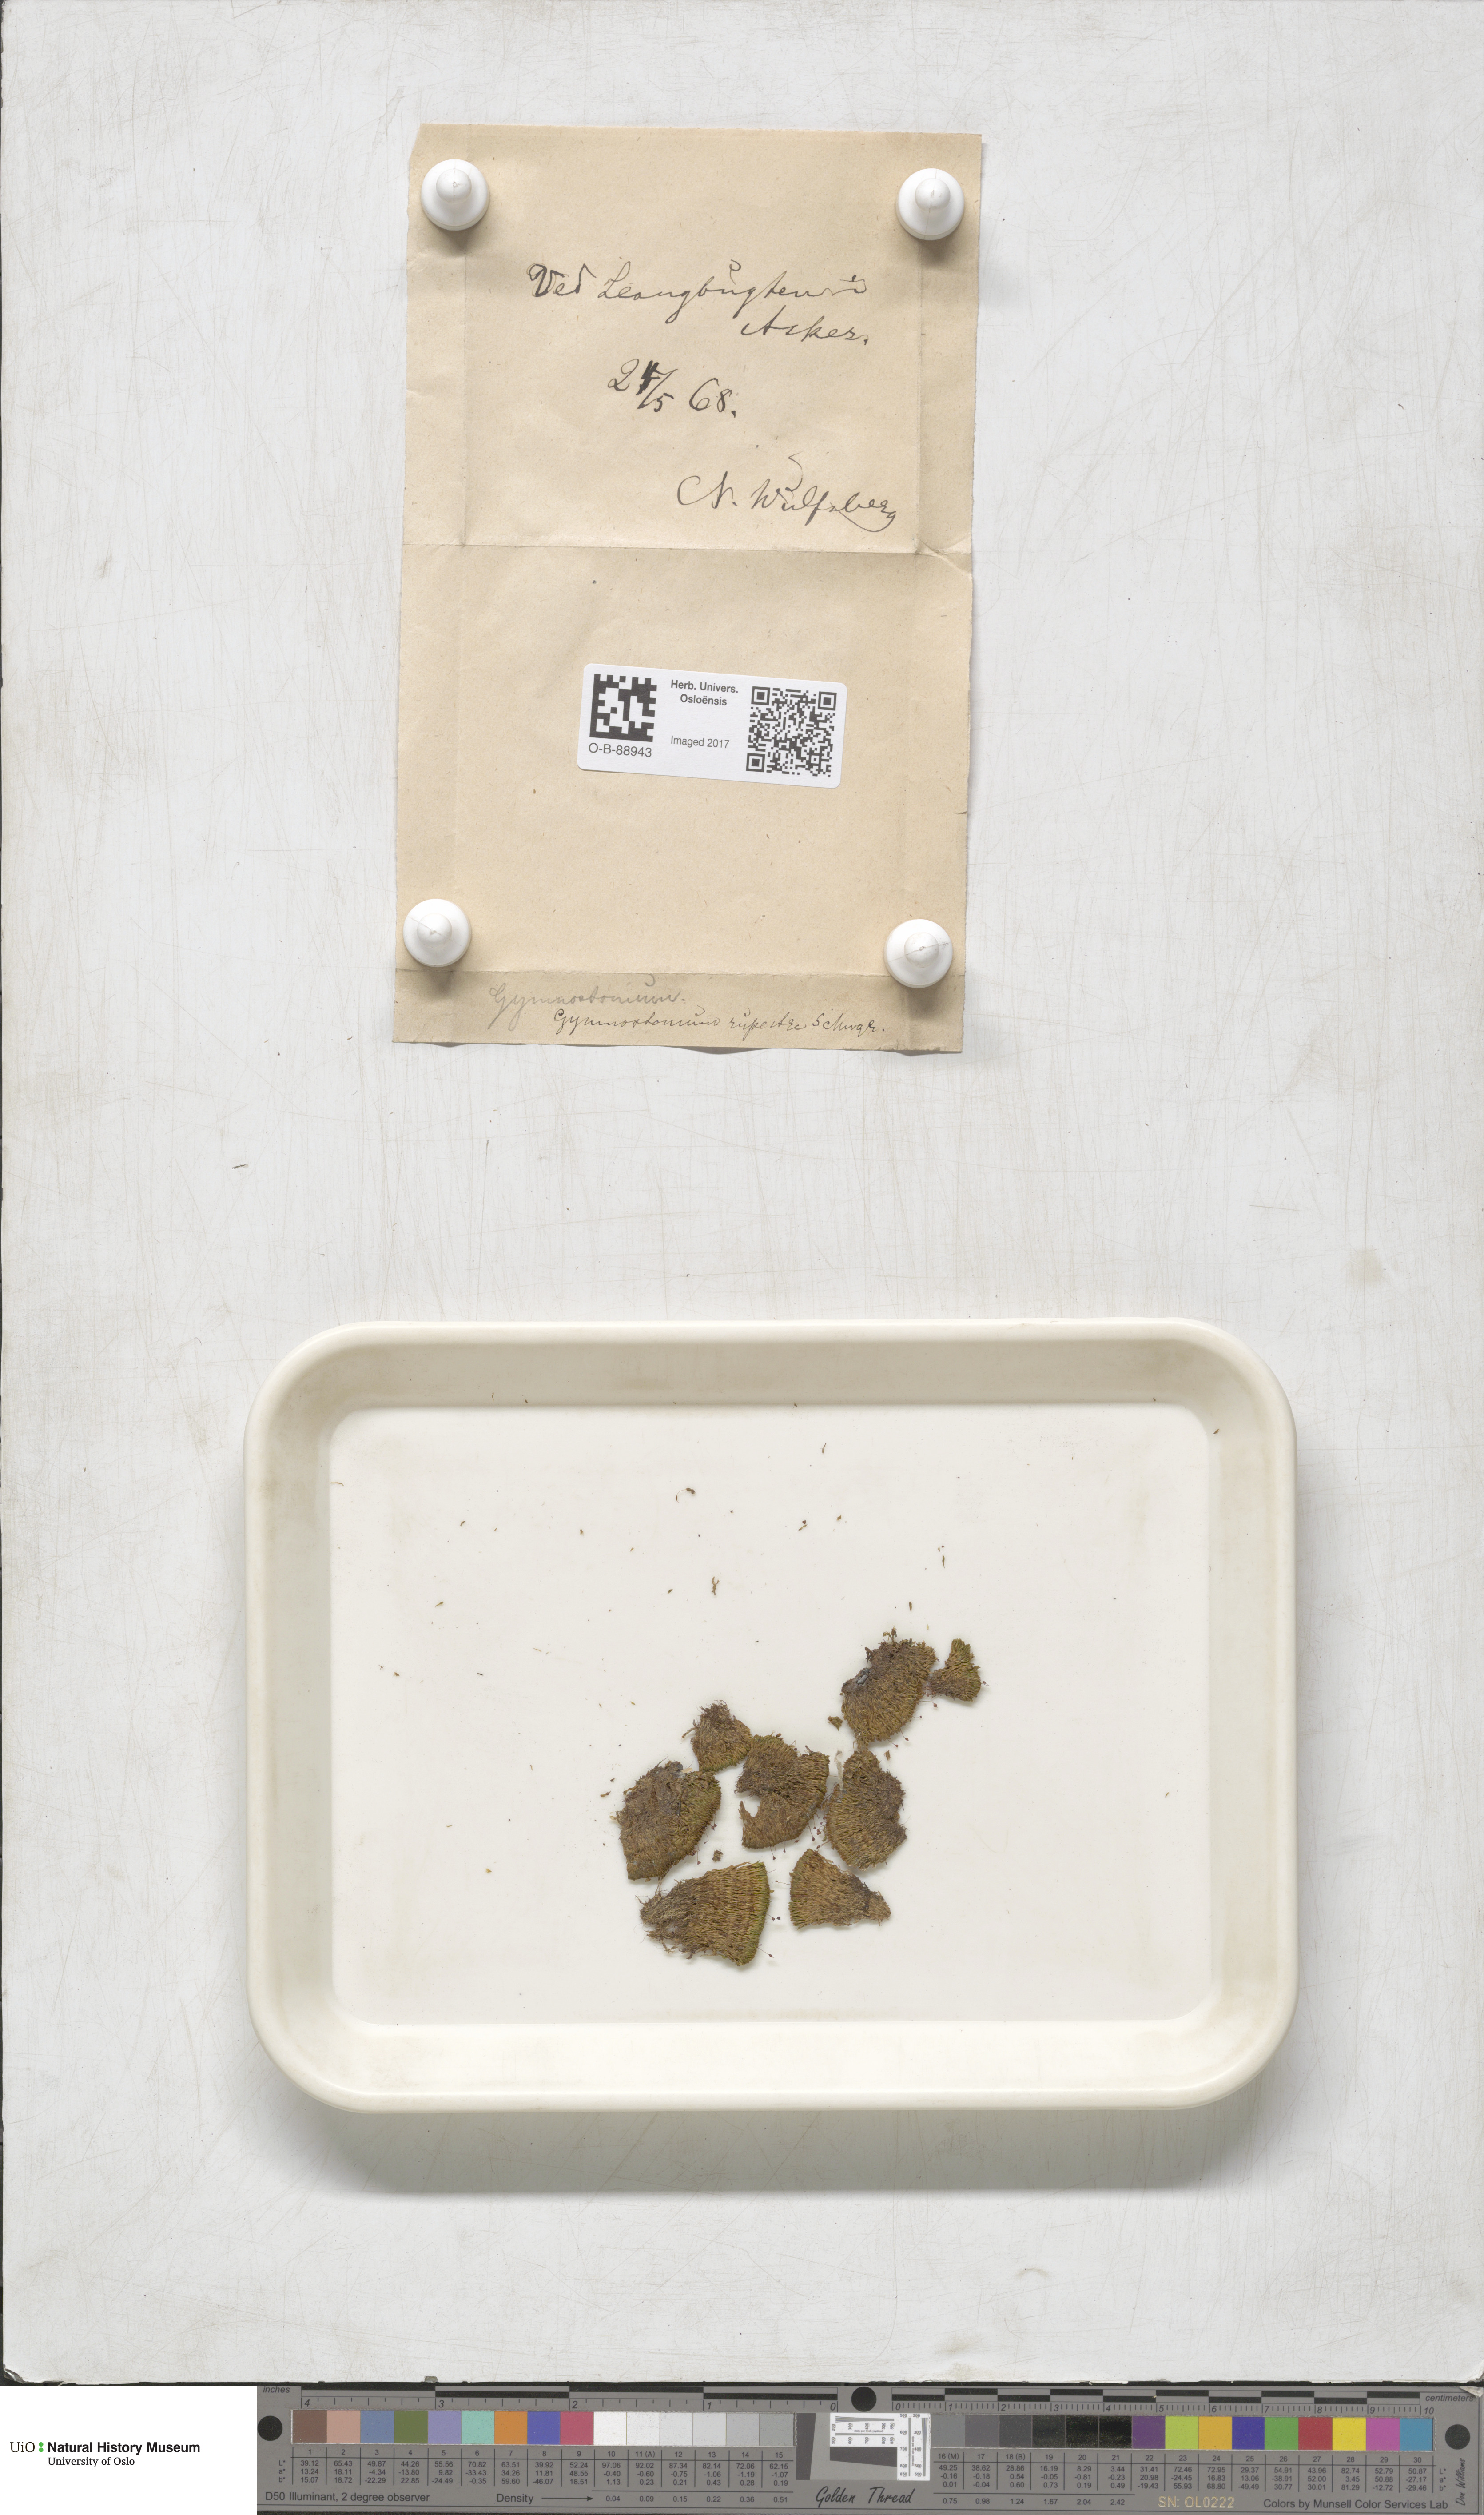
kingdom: Plantae
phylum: Bryophyta
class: Bryopsida
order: Pottiales
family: Pottiaceae
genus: Gymnostomum
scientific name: Gymnostomum aeruginosum
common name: Verdigris tufa-moss
